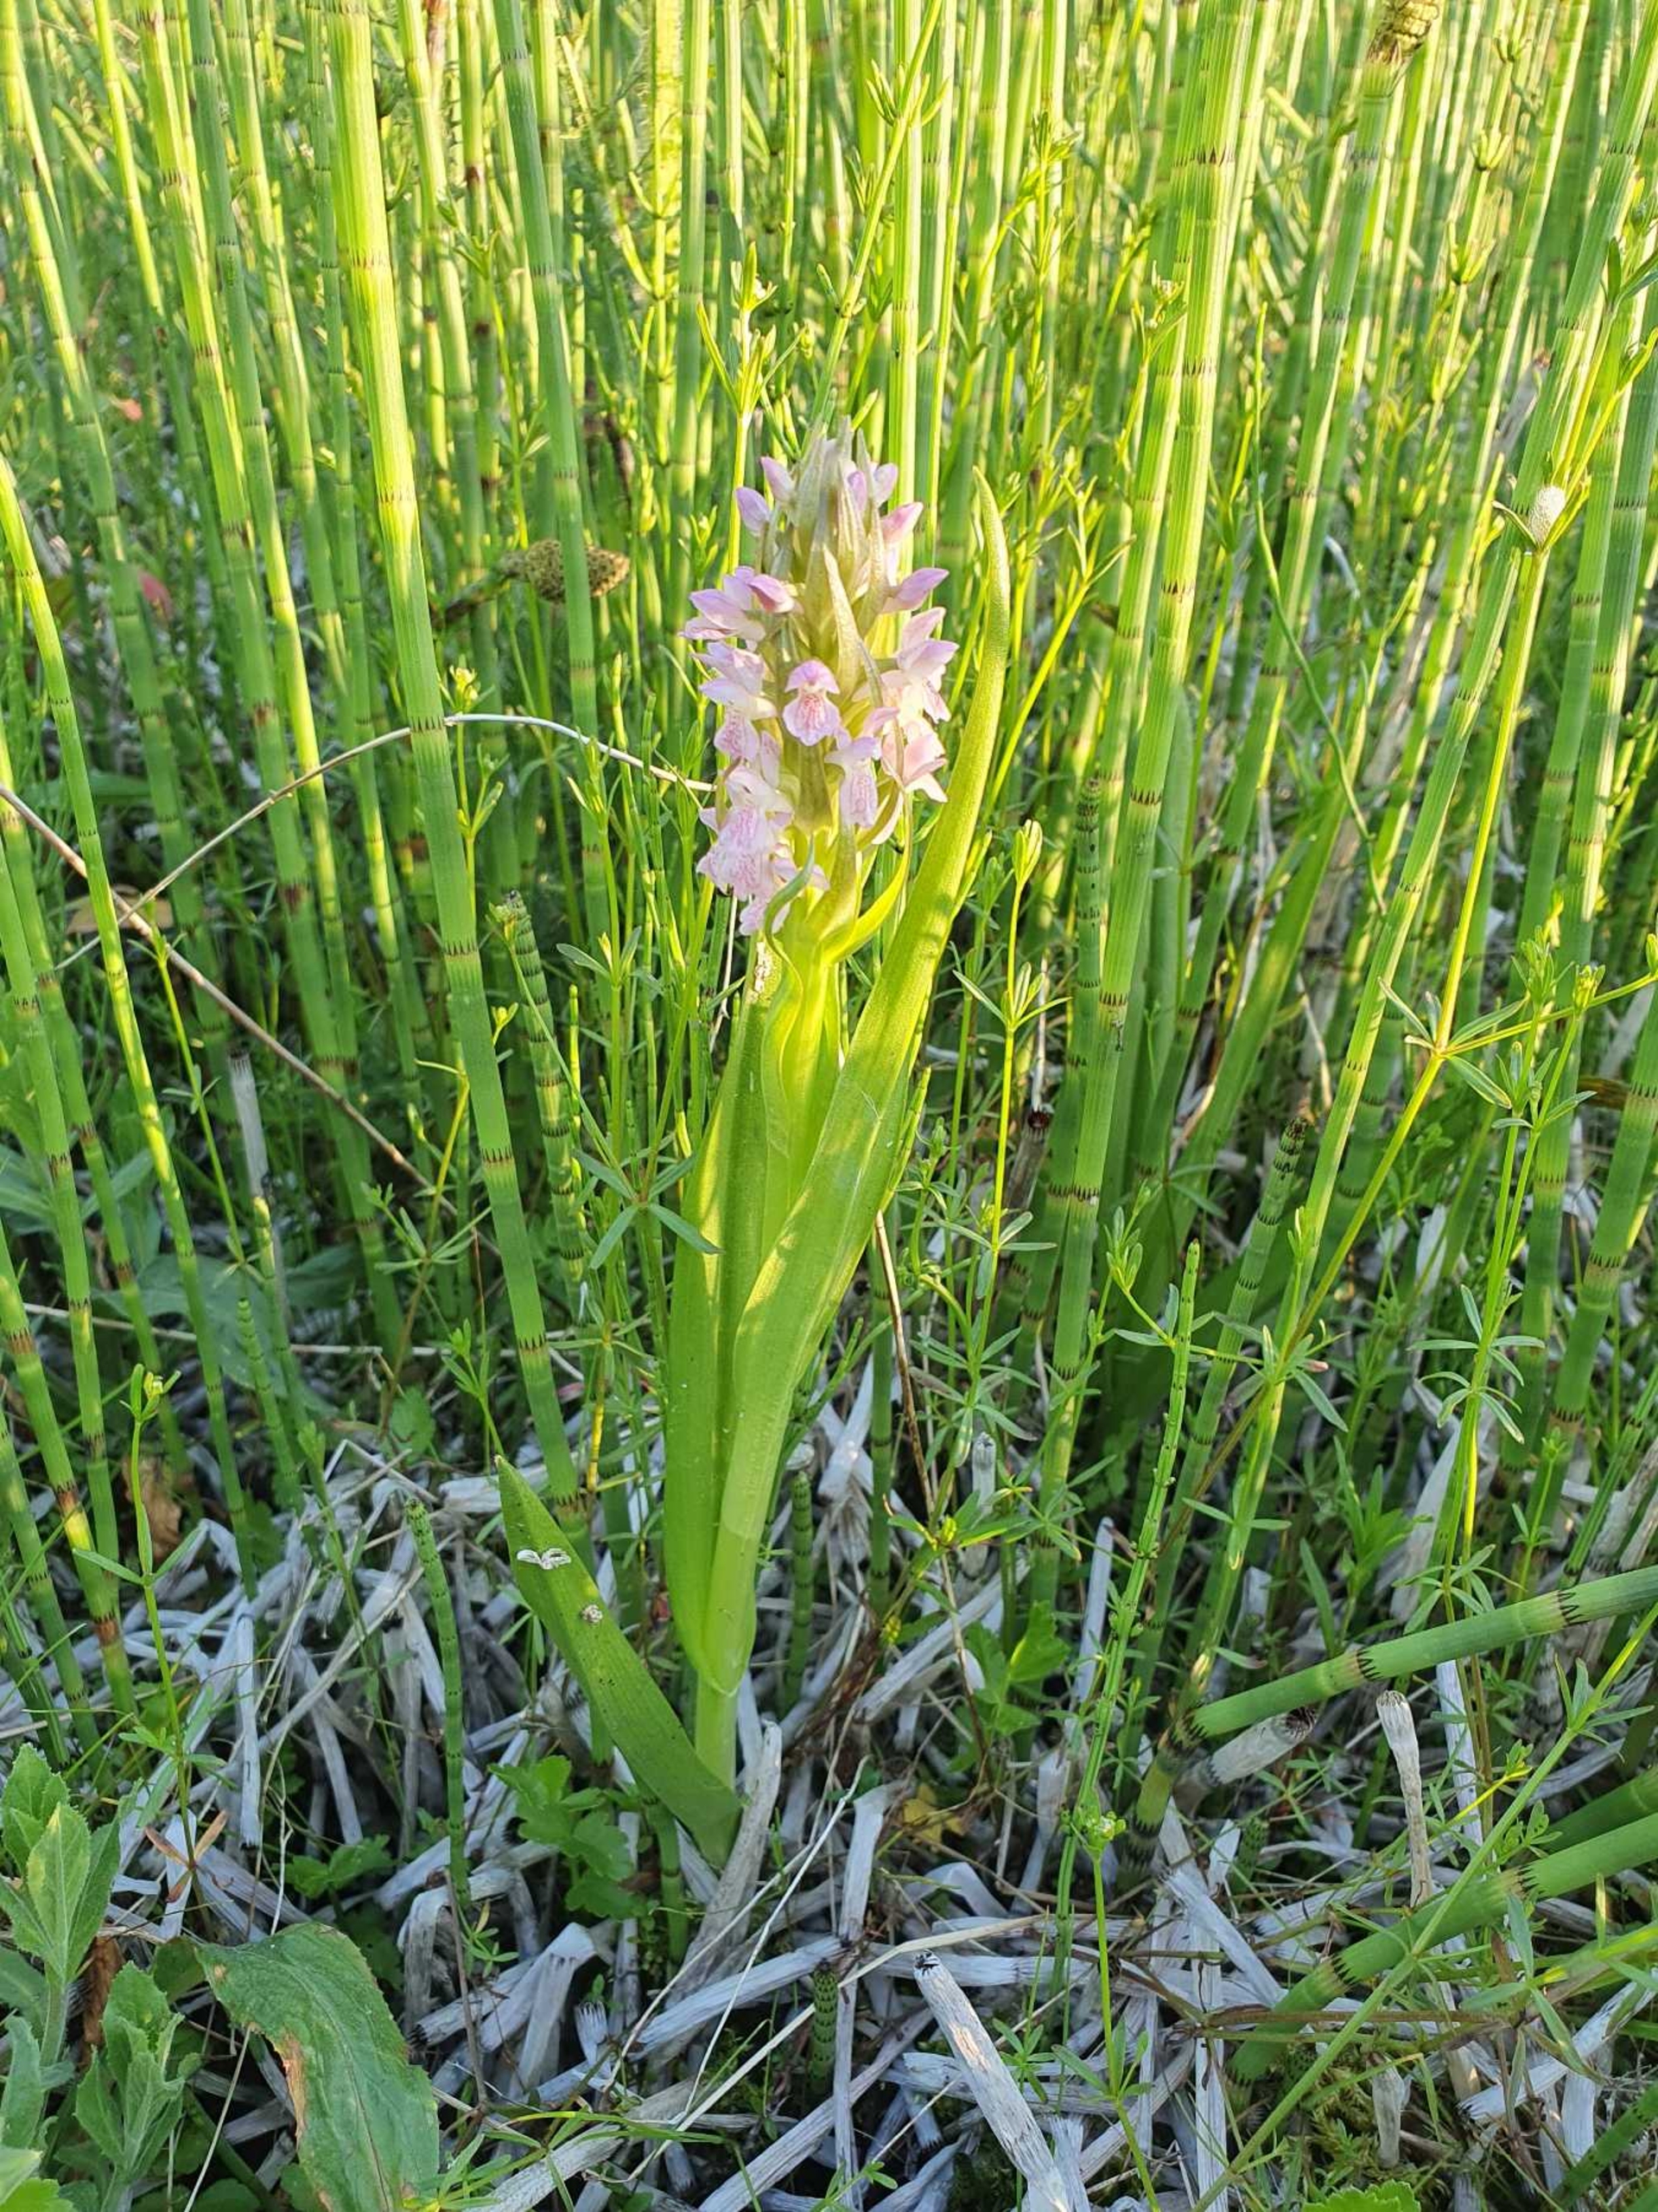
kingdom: Plantae
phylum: Tracheophyta
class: Liliopsida
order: Asparagales
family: Orchidaceae
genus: Dactylorhiza
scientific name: Dactylorhiza incarnata
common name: Kødfarvet gøgeurt (varietet)
